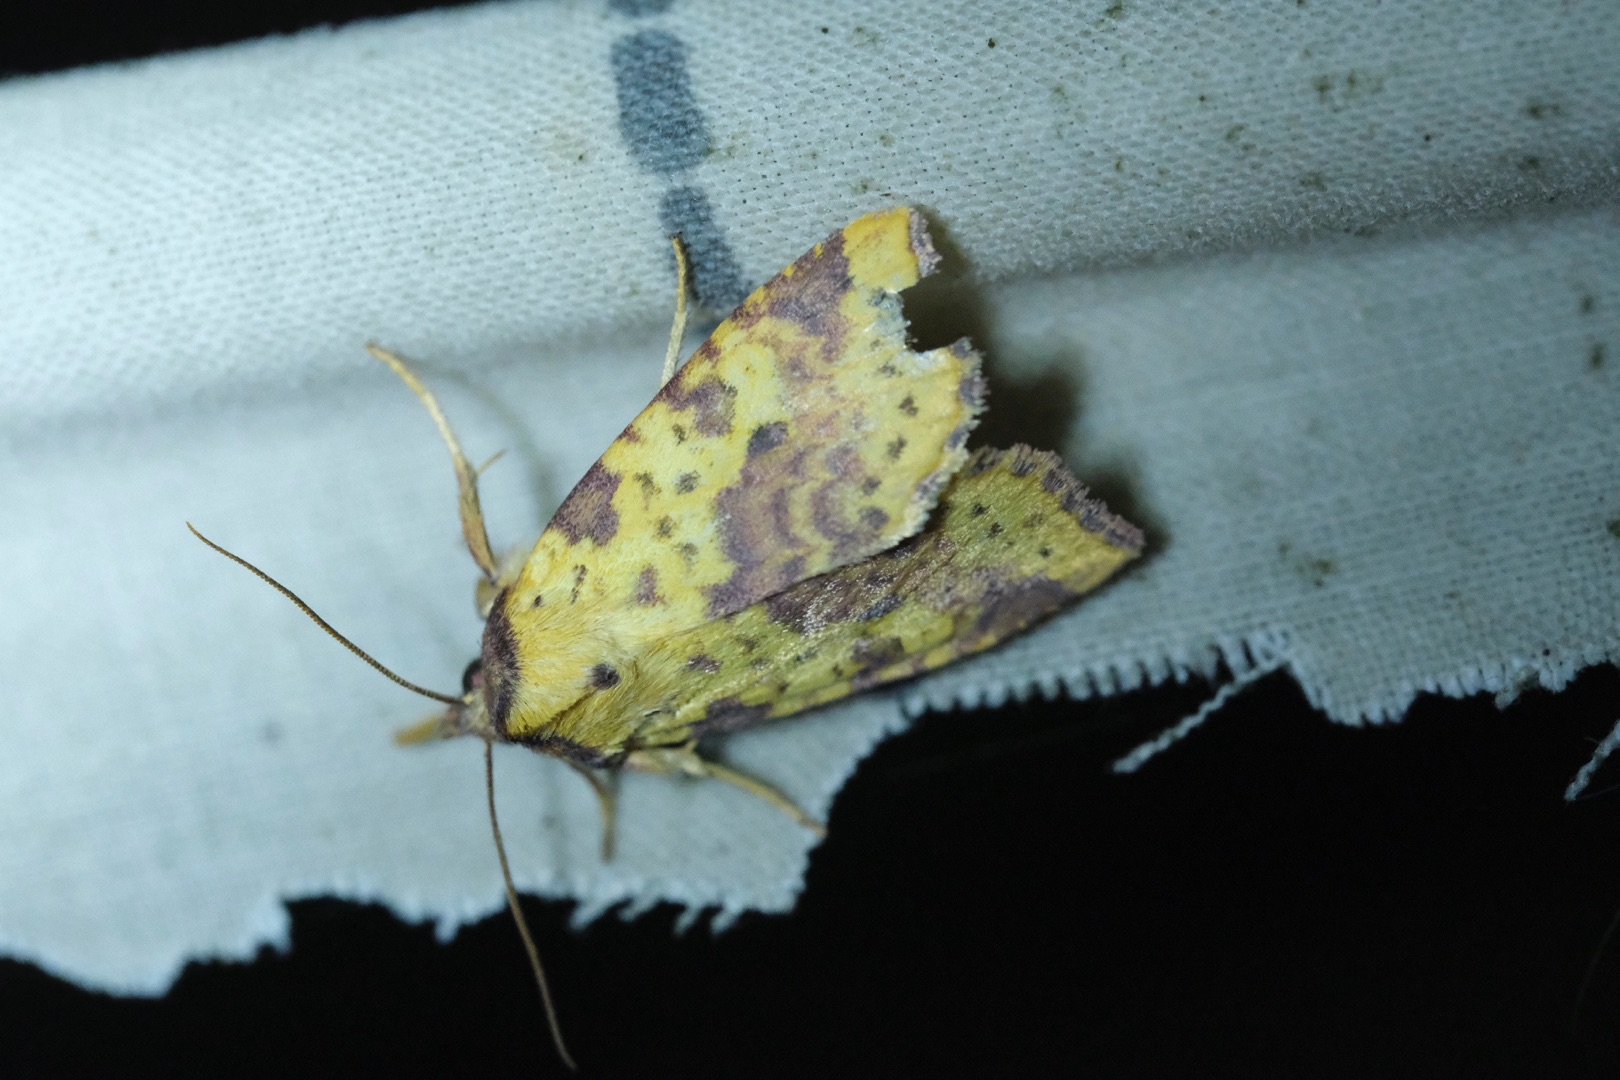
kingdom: Animalia
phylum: Arthropoda
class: Insecta
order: Lepidoptera
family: Noctuidae
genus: Xanthia
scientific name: Xanthia togata
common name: Toga-septemberugle
